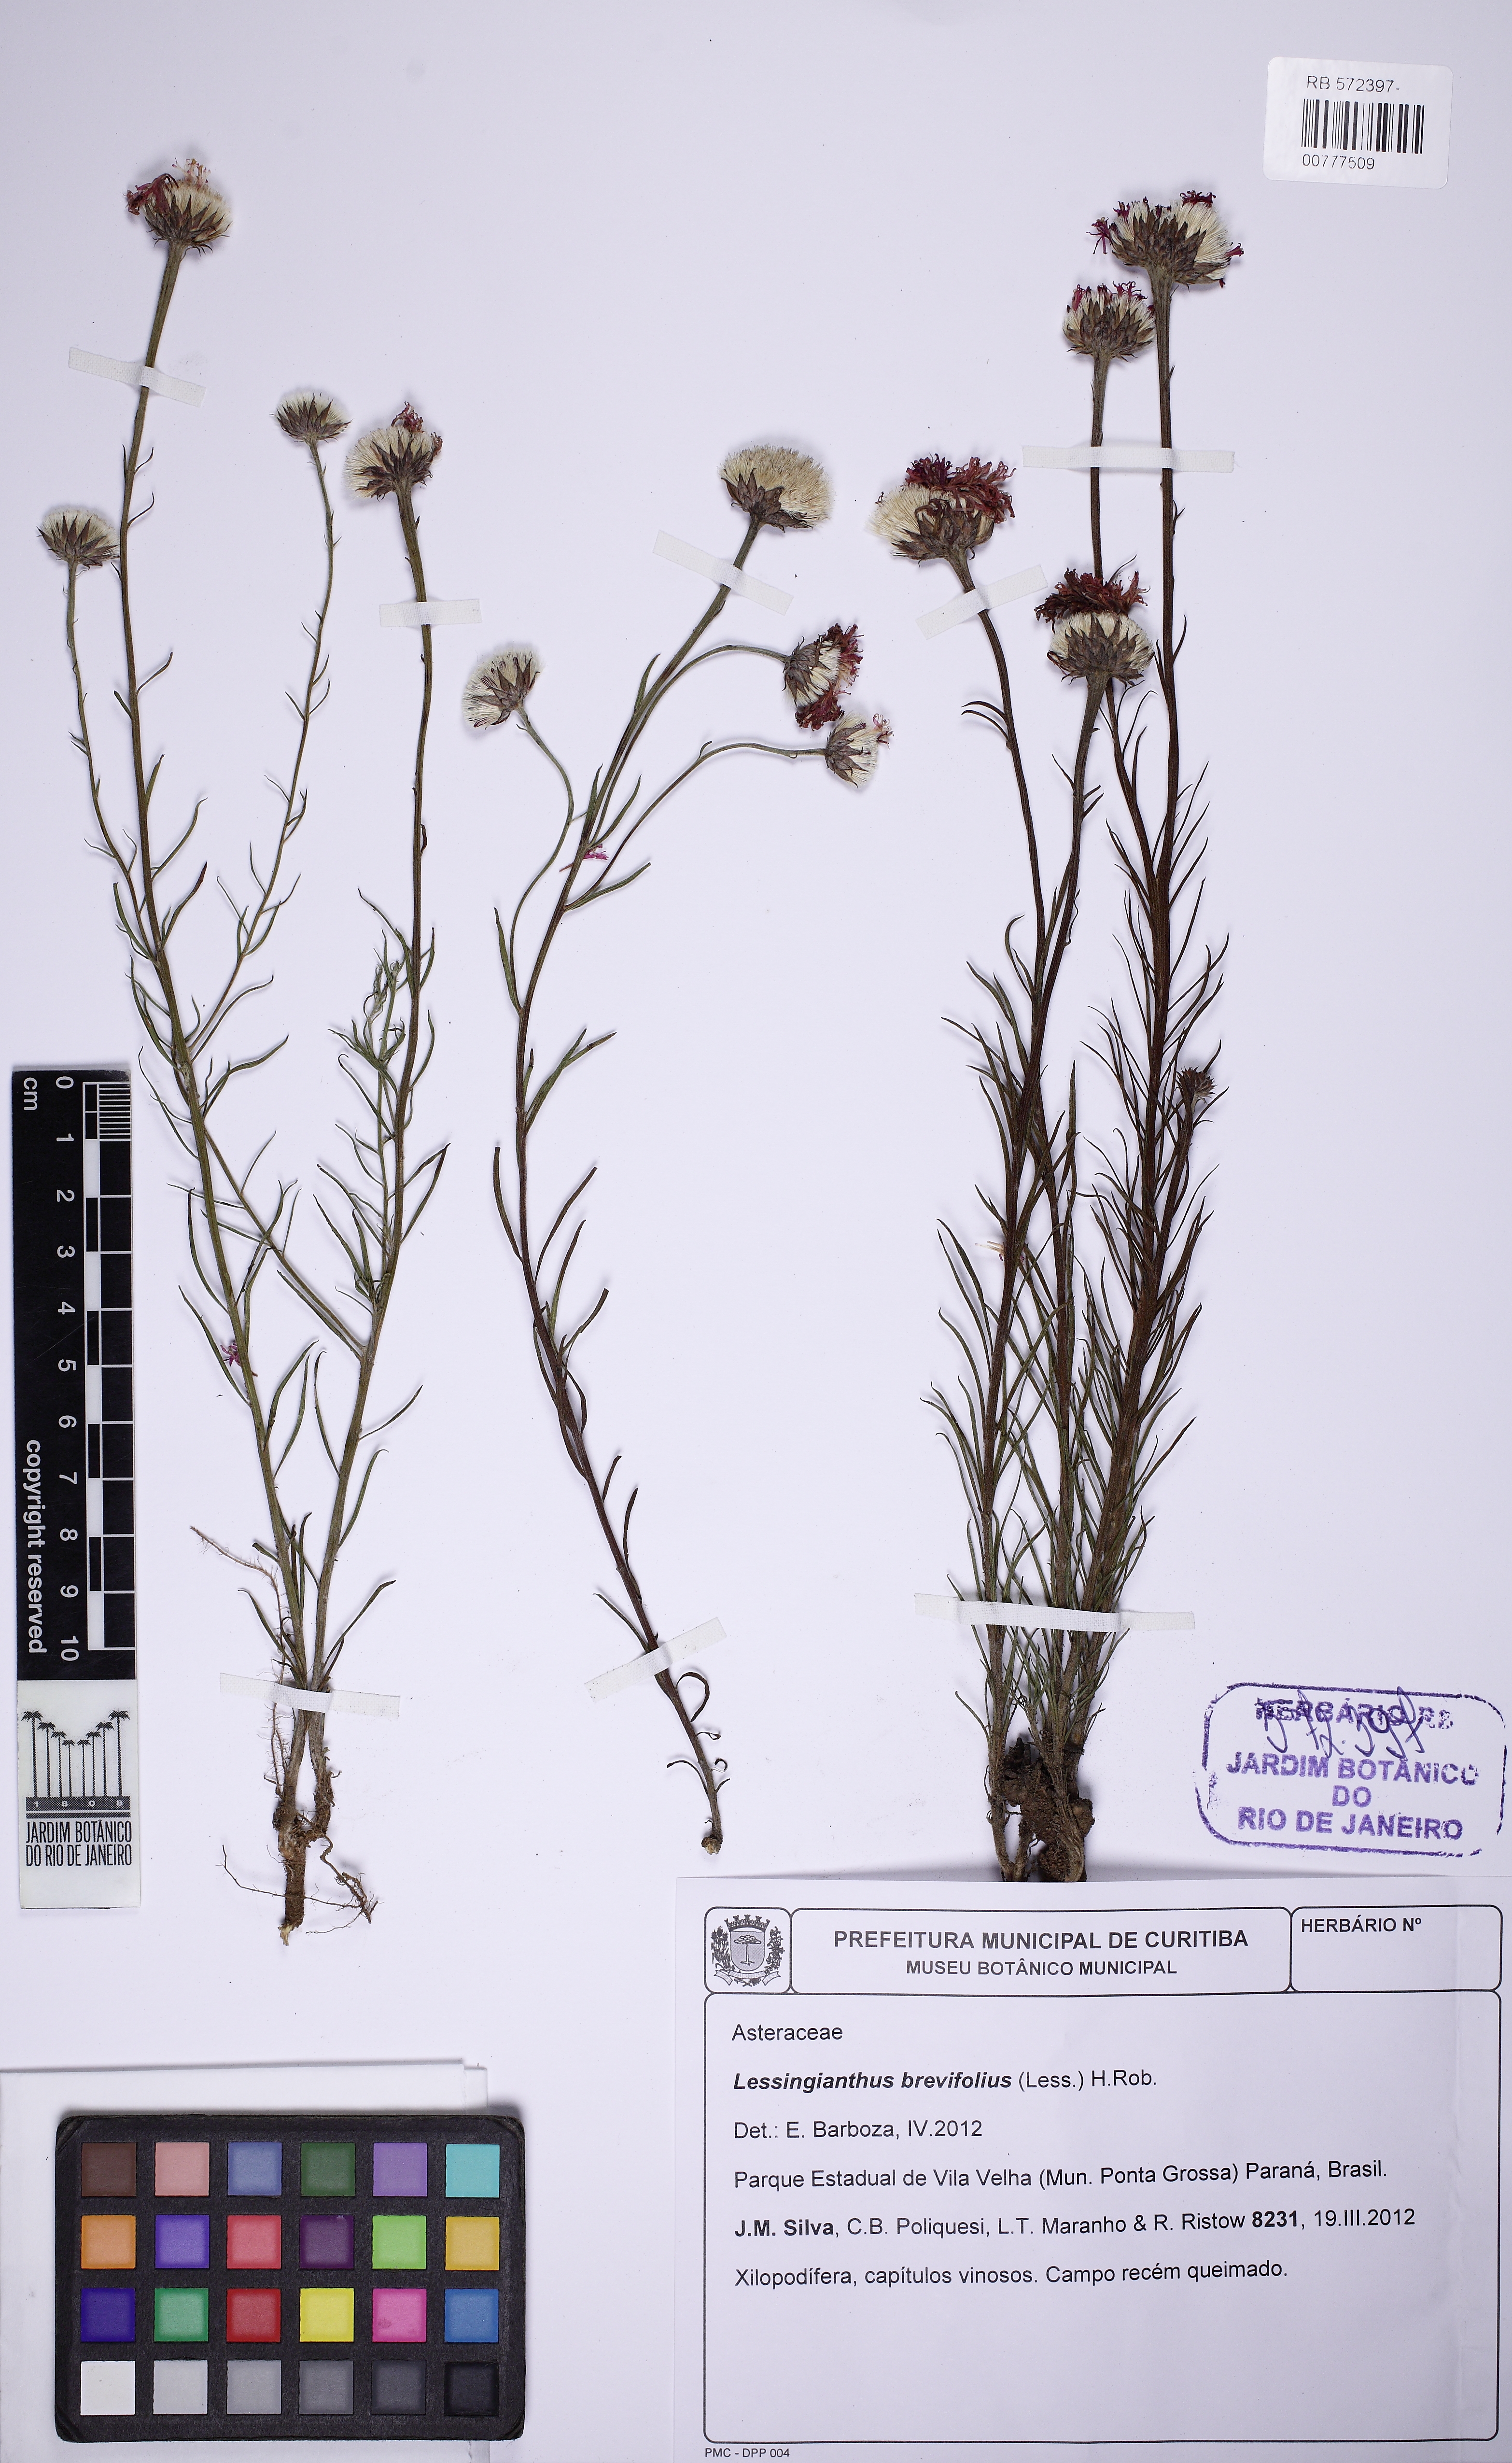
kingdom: Plantae
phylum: Tracheophyta
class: Magnoliopsida
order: Asterales
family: Asteraceae
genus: Lessingianthus
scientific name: Lessingianthus brevifolius
